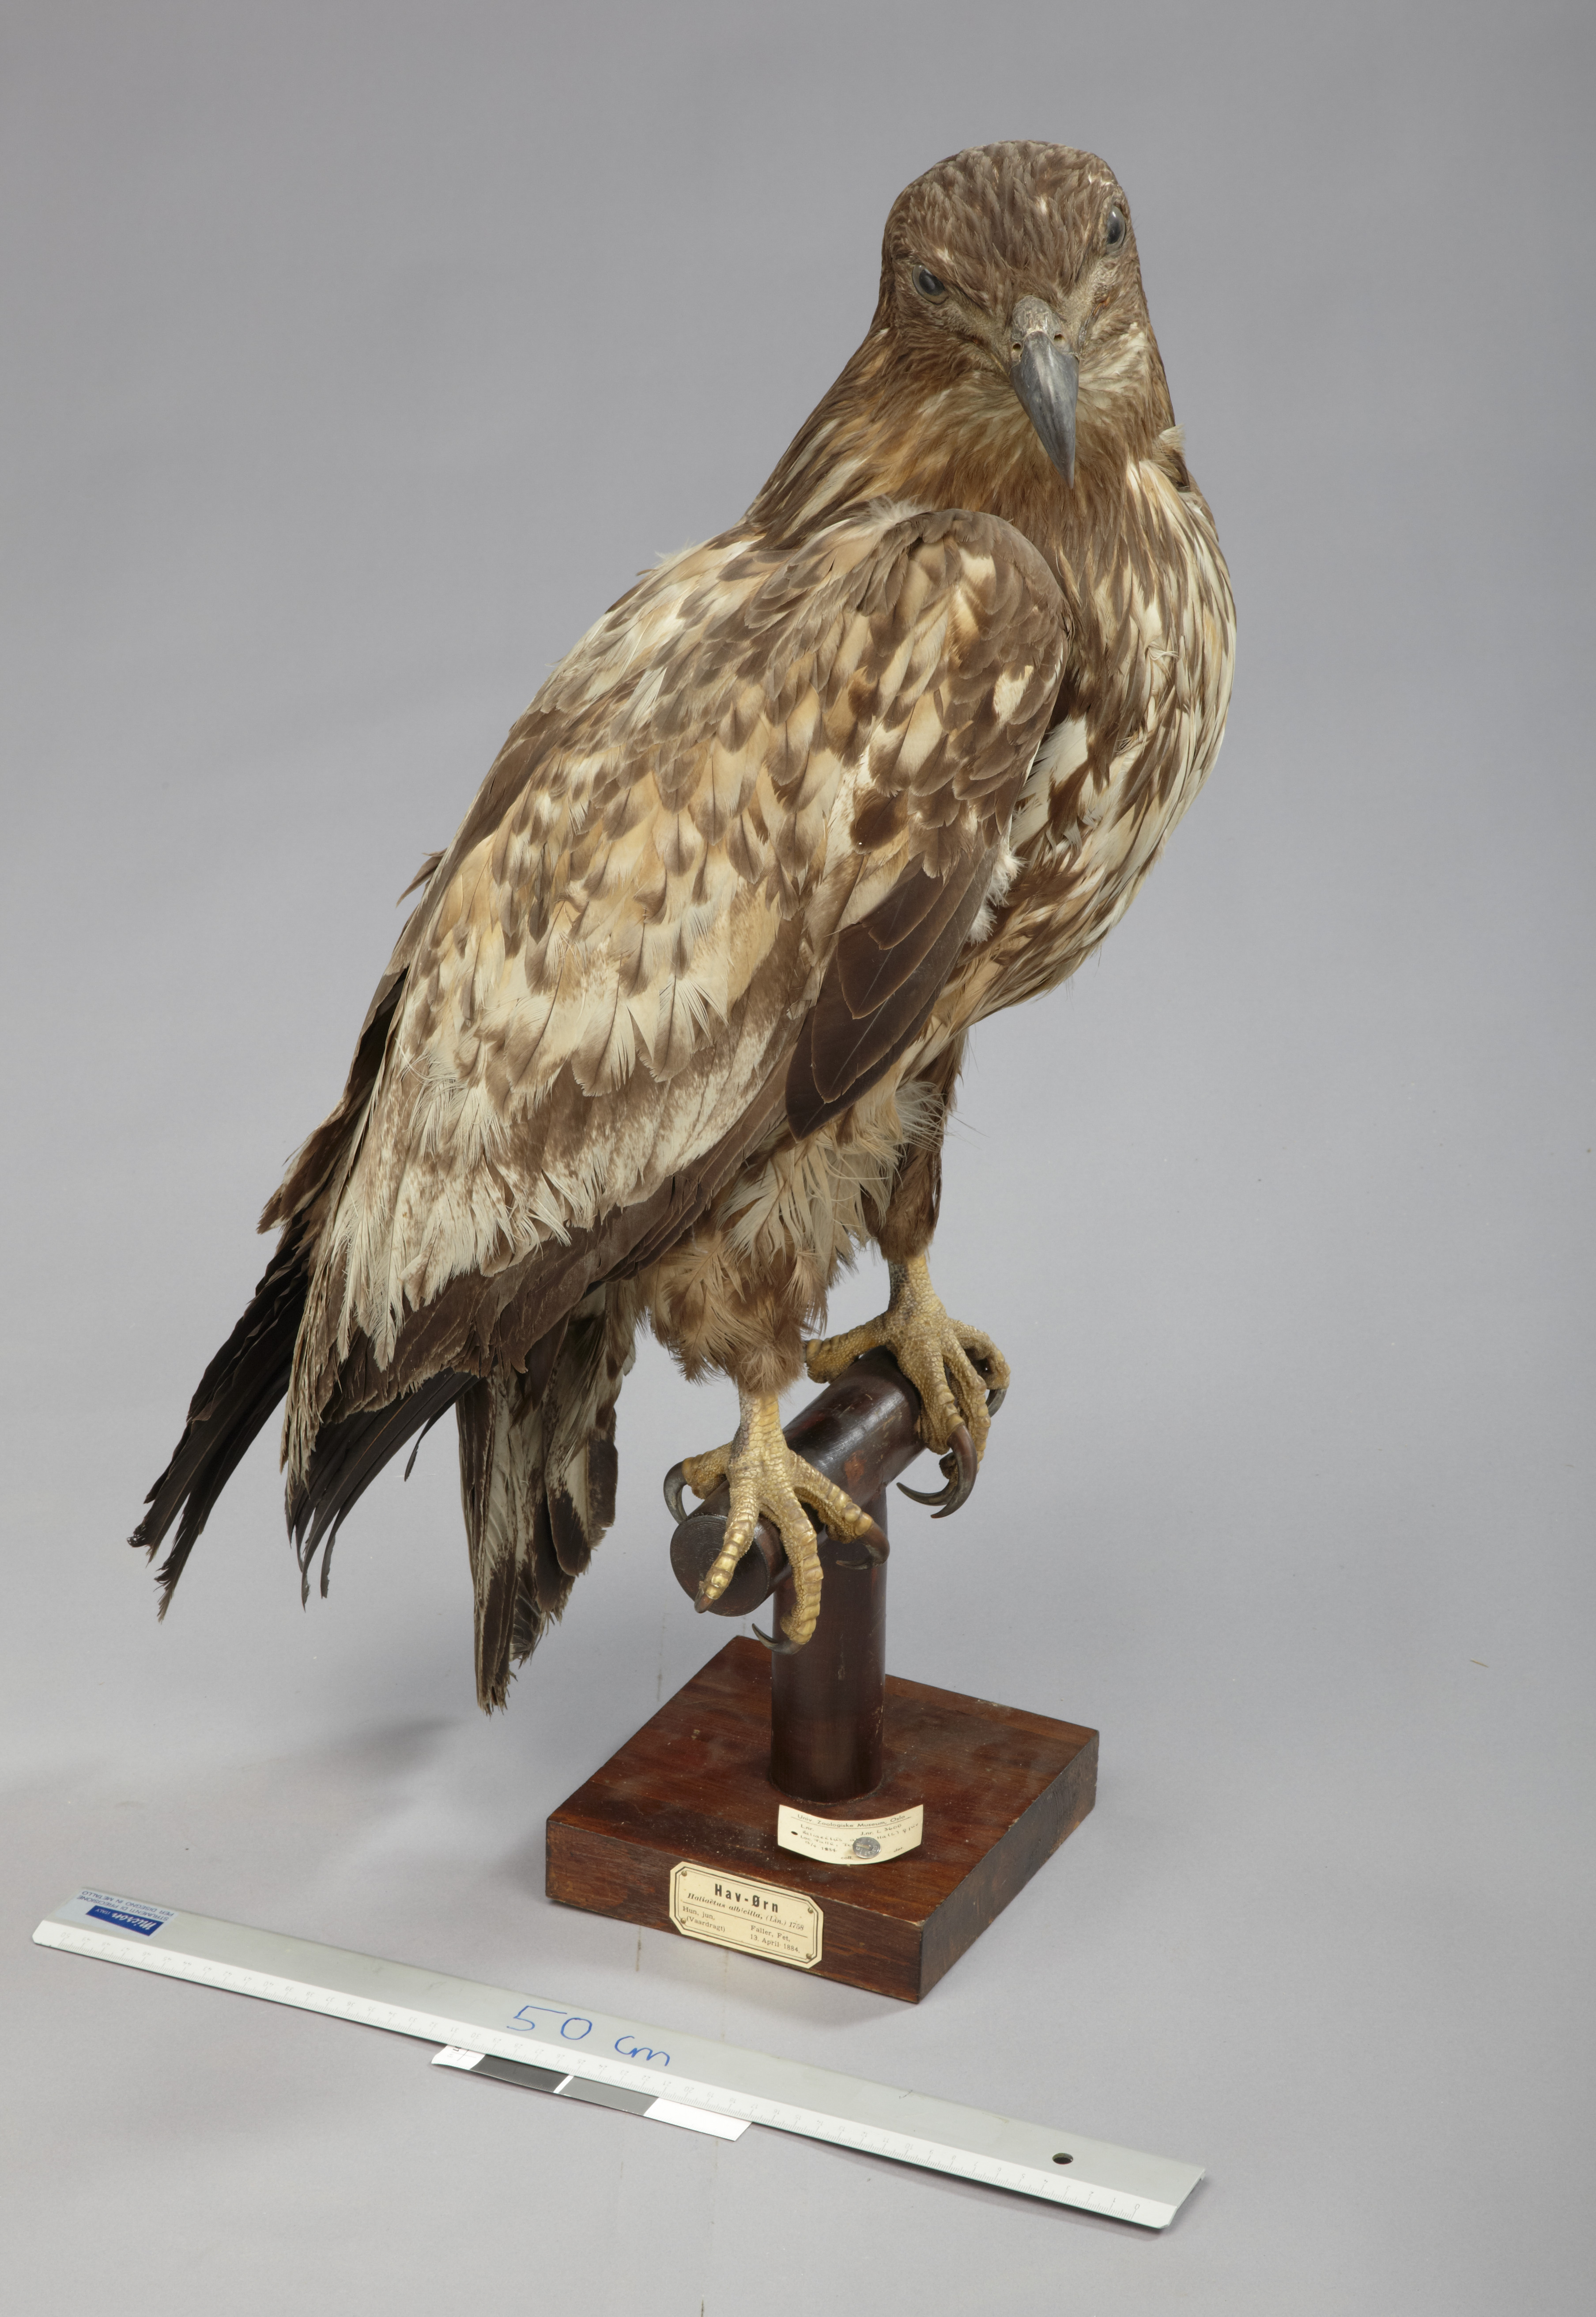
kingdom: Animalia
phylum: Chordata
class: Aves
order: Accipitriformes
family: Accipitridae
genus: Haliaeetus
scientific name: Haliaeetus albicilla
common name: White-tailed eagle
